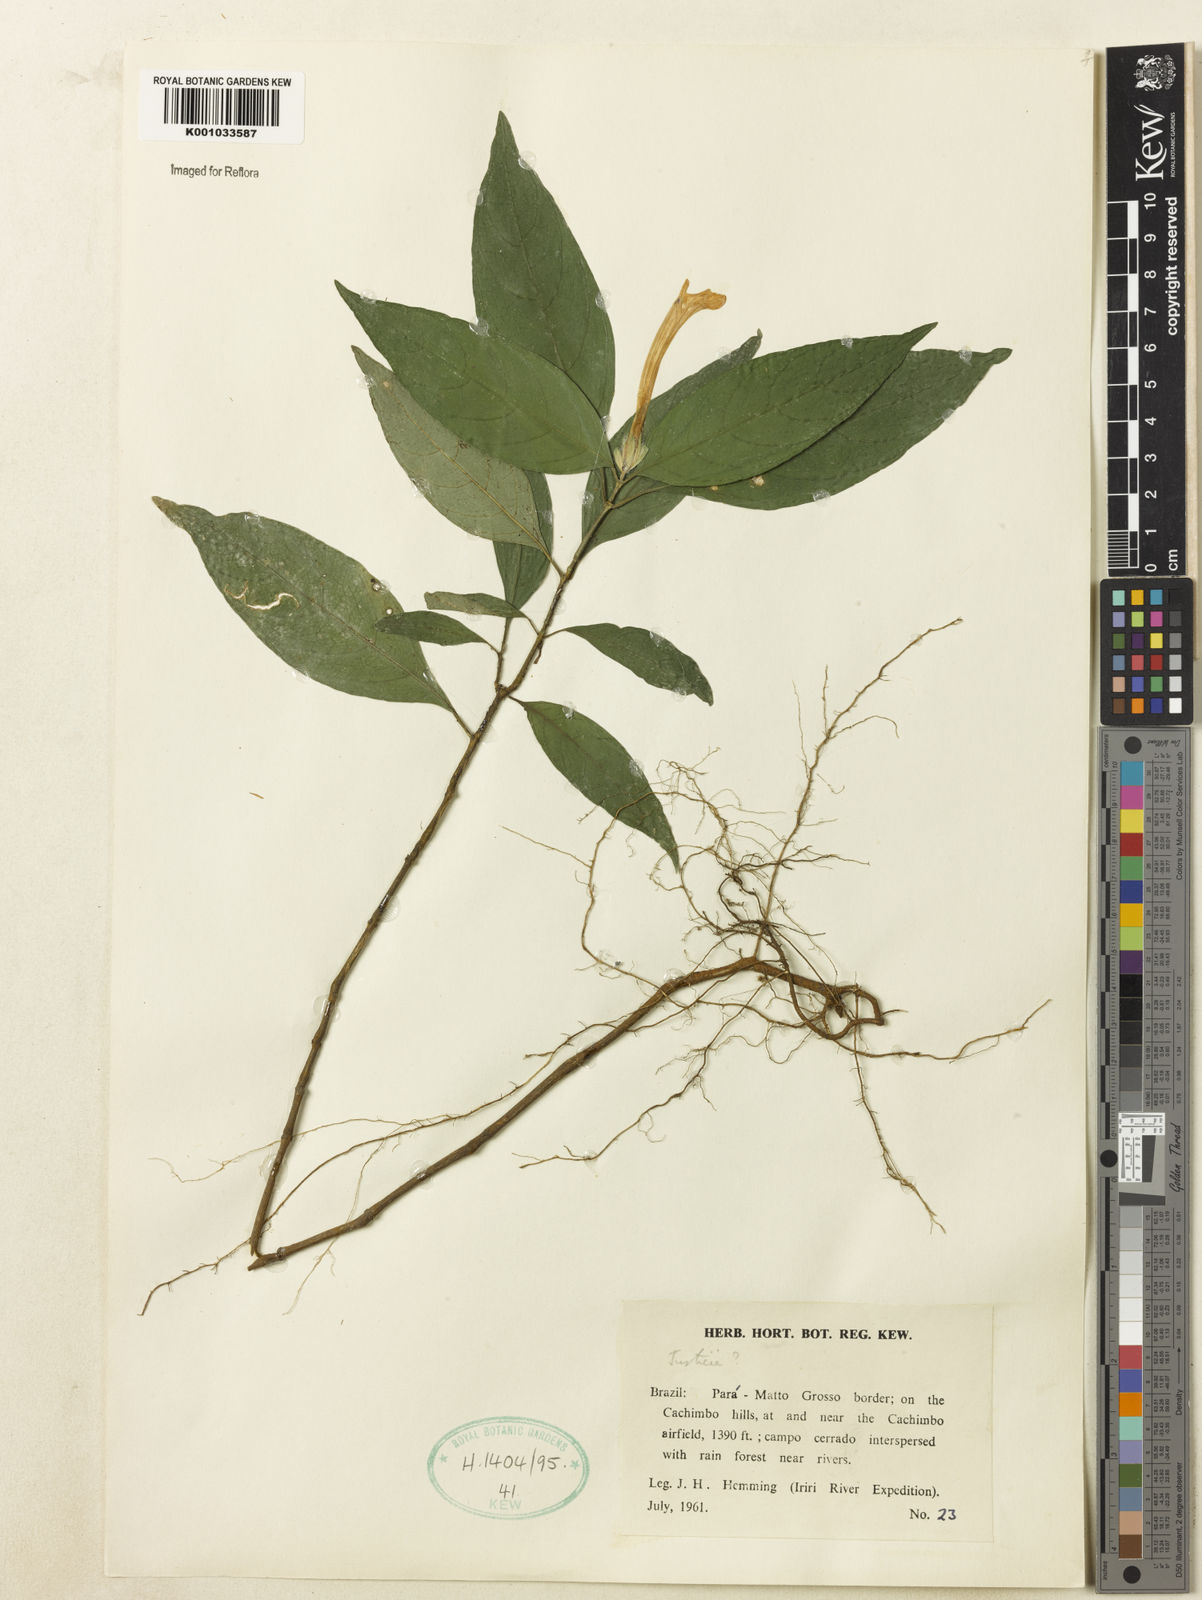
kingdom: Plantae
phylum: Tracheophyta
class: Magnoliopsida
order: Lamiales
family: Acanthaceae
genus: Justicia
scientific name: Justicia
